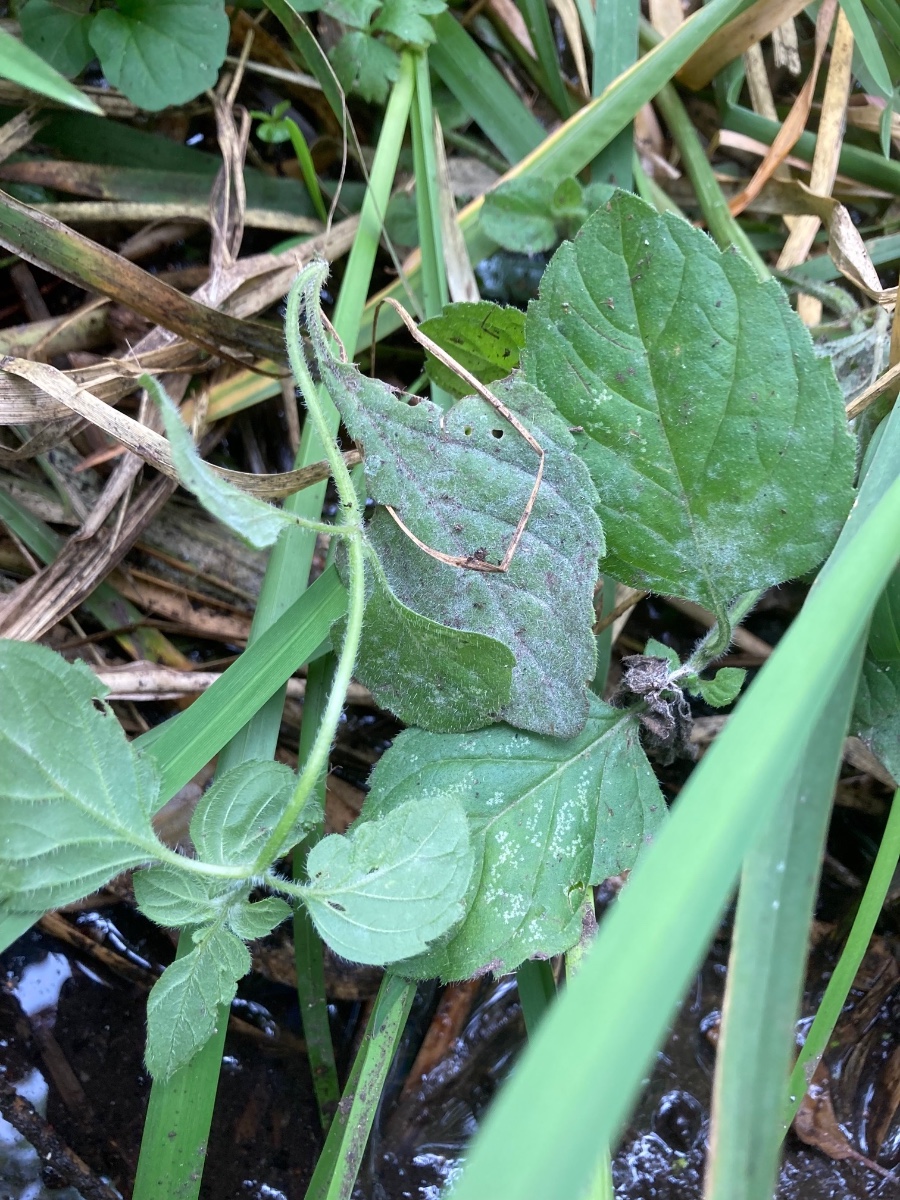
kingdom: Fungi
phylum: Ascomycota
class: Leotiomycetes
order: Helotiales
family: Erysiphaceae
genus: Golovinomyces
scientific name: Golovinomyces monardae
